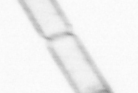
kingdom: Chromista
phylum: Ochrophyta
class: Bacillariophyceae
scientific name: Bacillariophyceae
